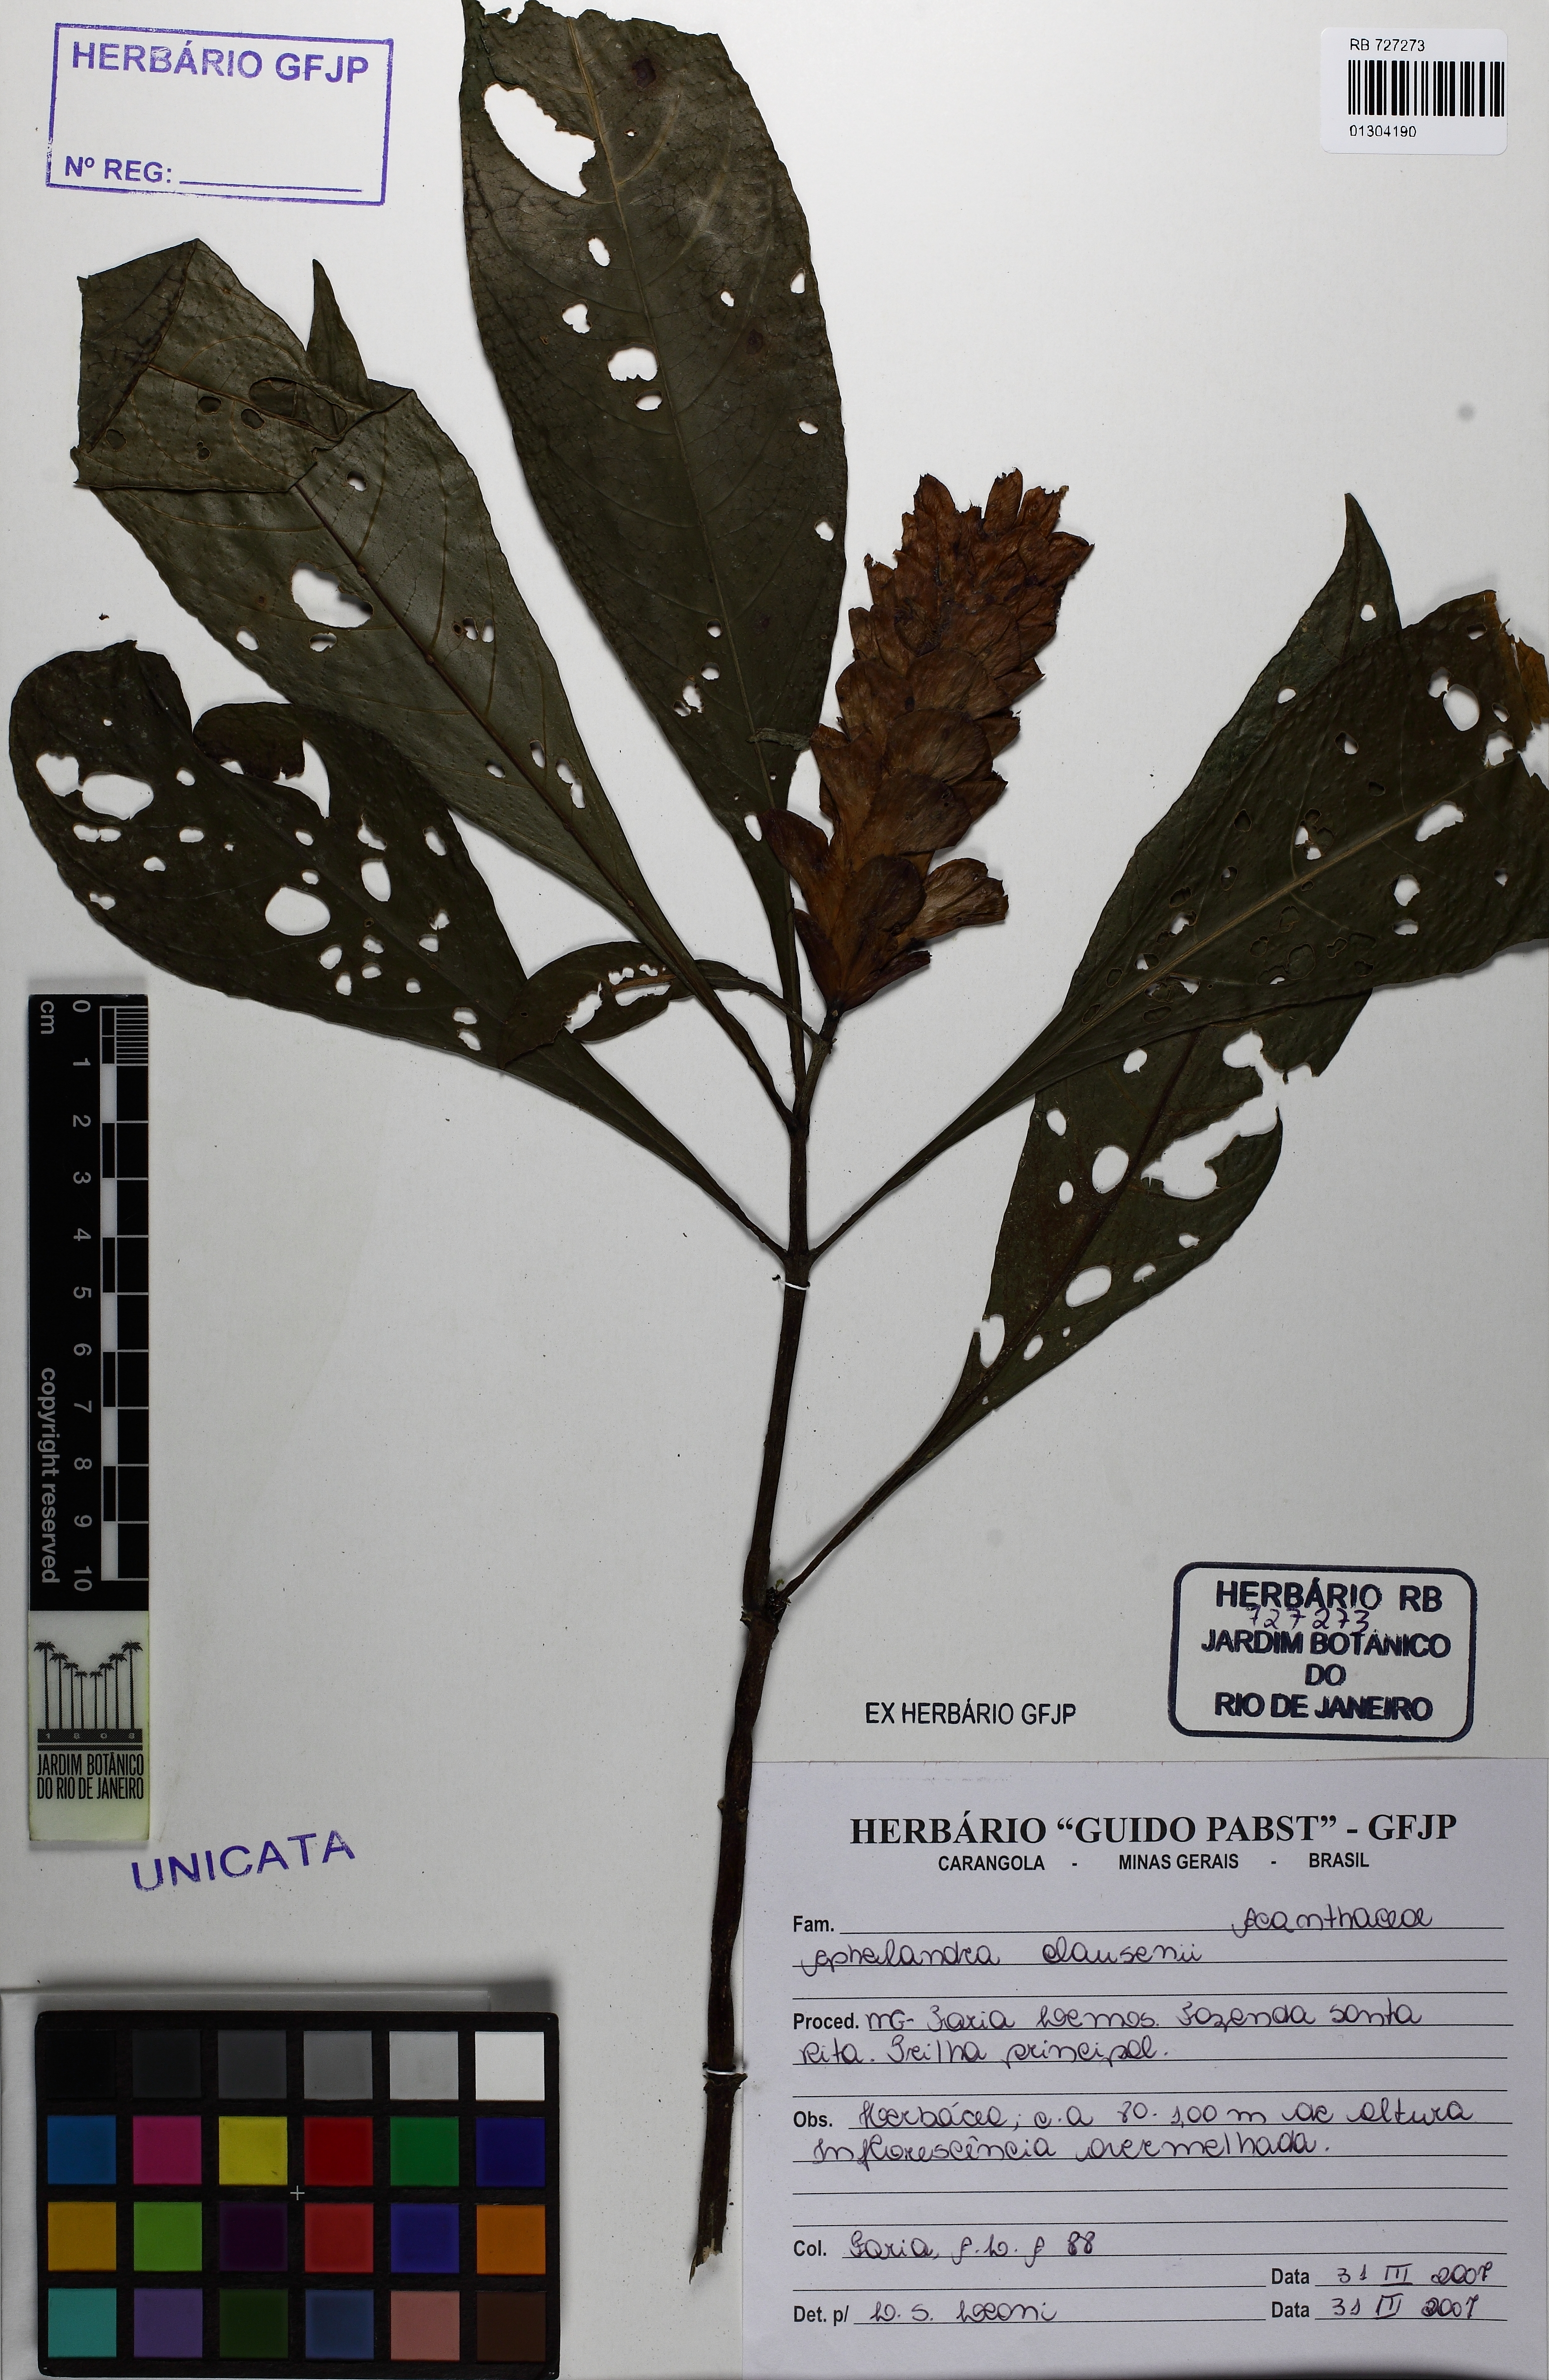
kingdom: Plantae
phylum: Tracheophyta
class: Magnoliopsida
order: Lamiales
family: Acanthaceae
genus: Aphelandra
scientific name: Aphelandra claussenii
